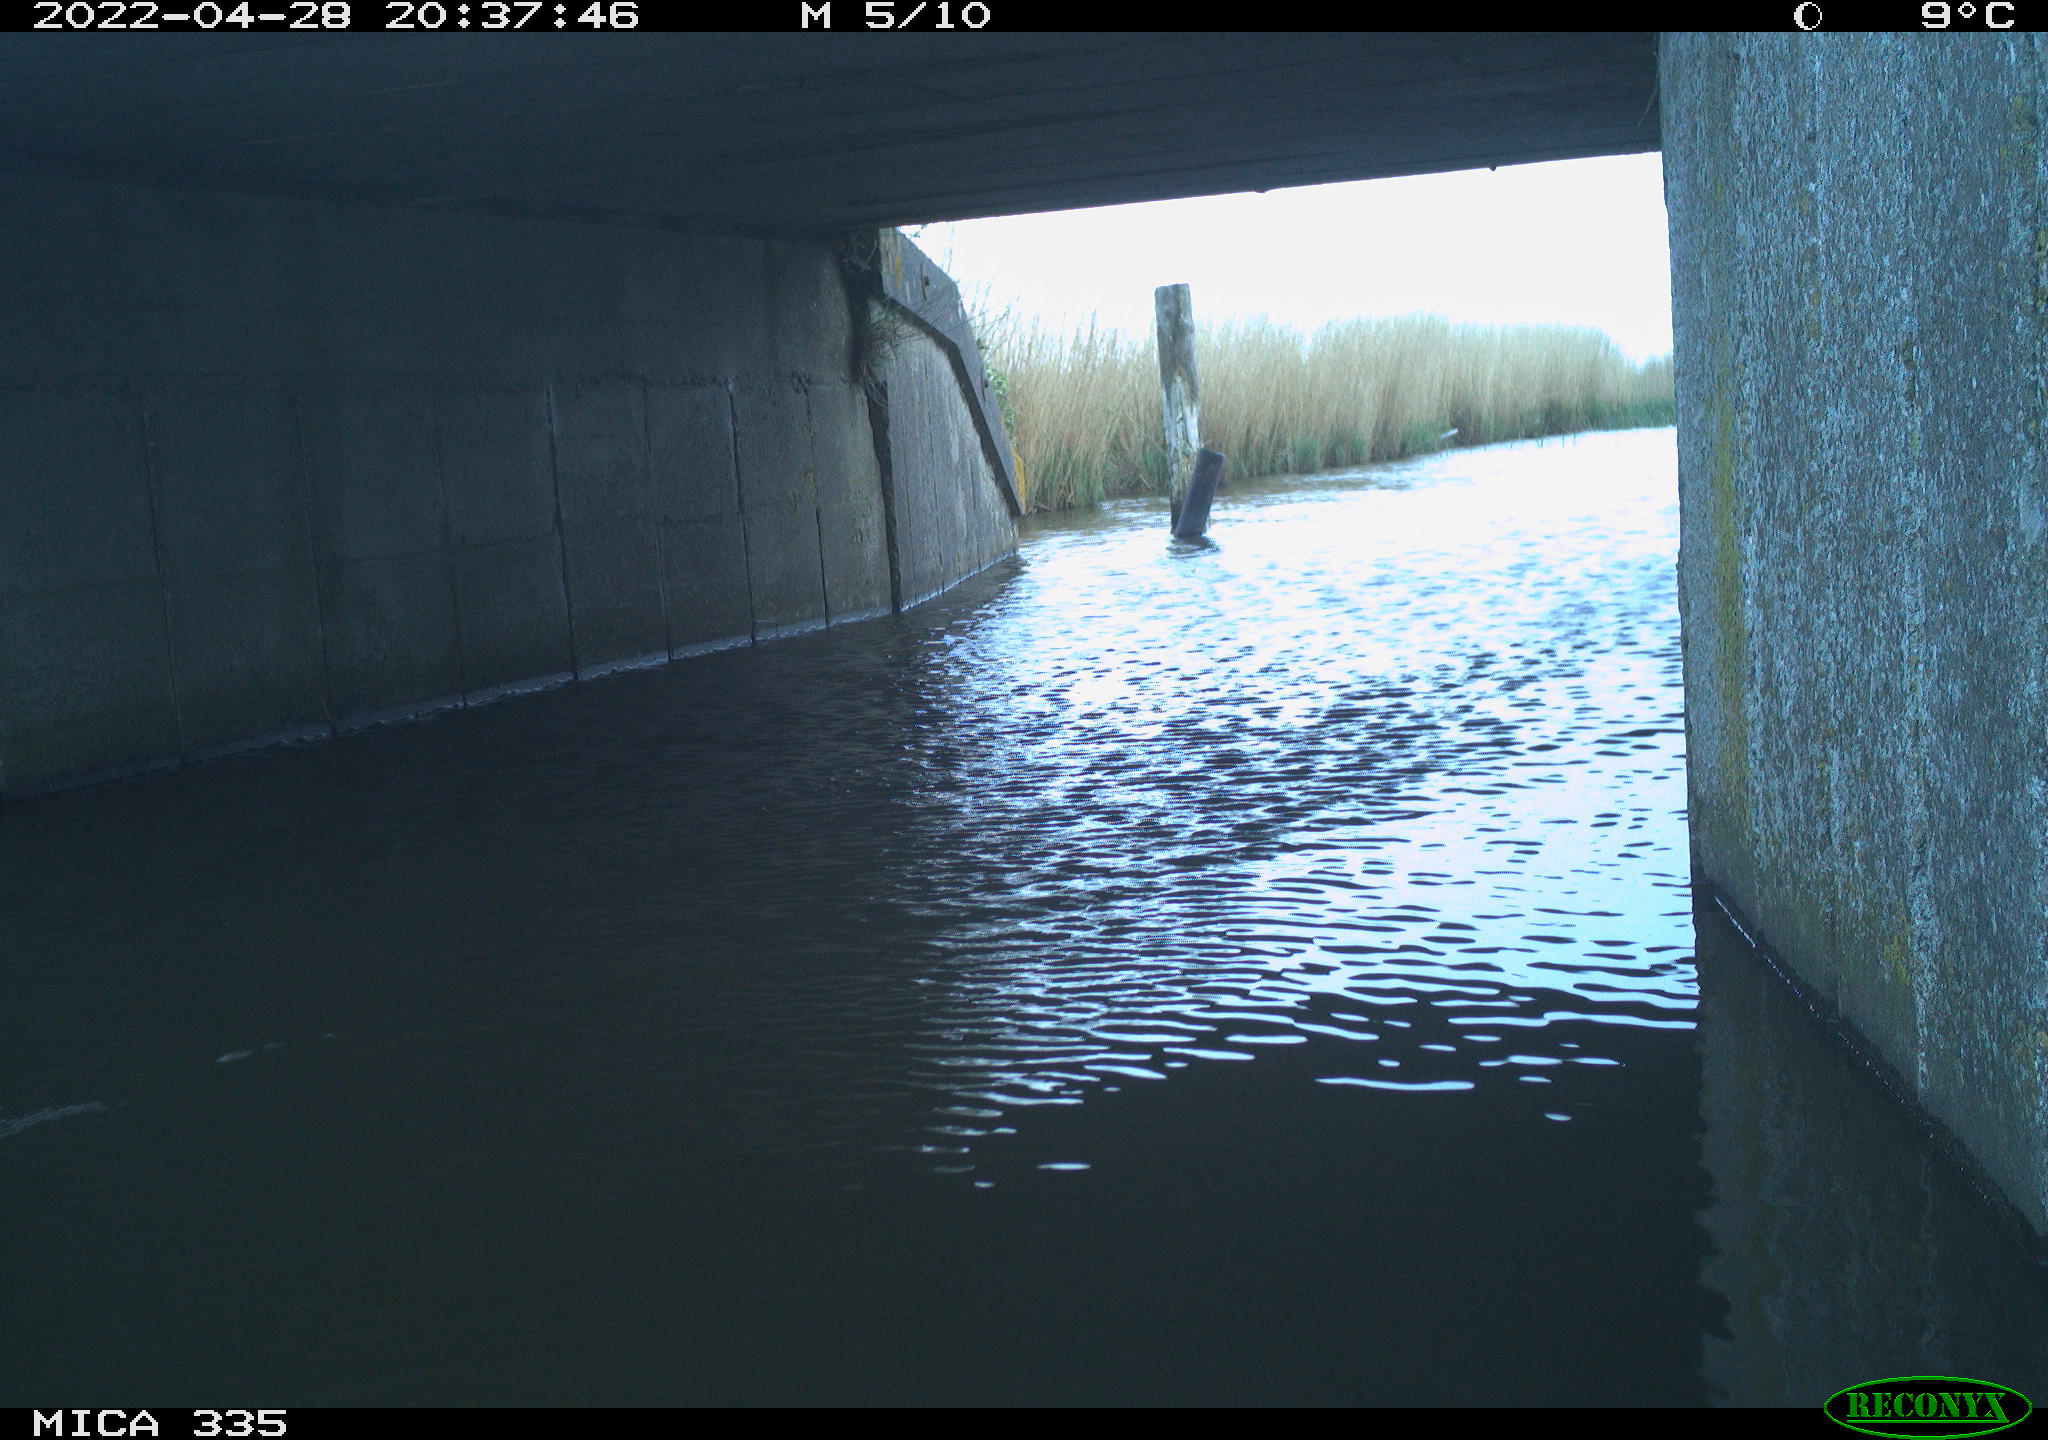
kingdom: Animalia
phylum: Chordata
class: Aves
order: Anseriformes
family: Anatidae
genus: Anas
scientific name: Anas platyrhynchos
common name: Mallard
